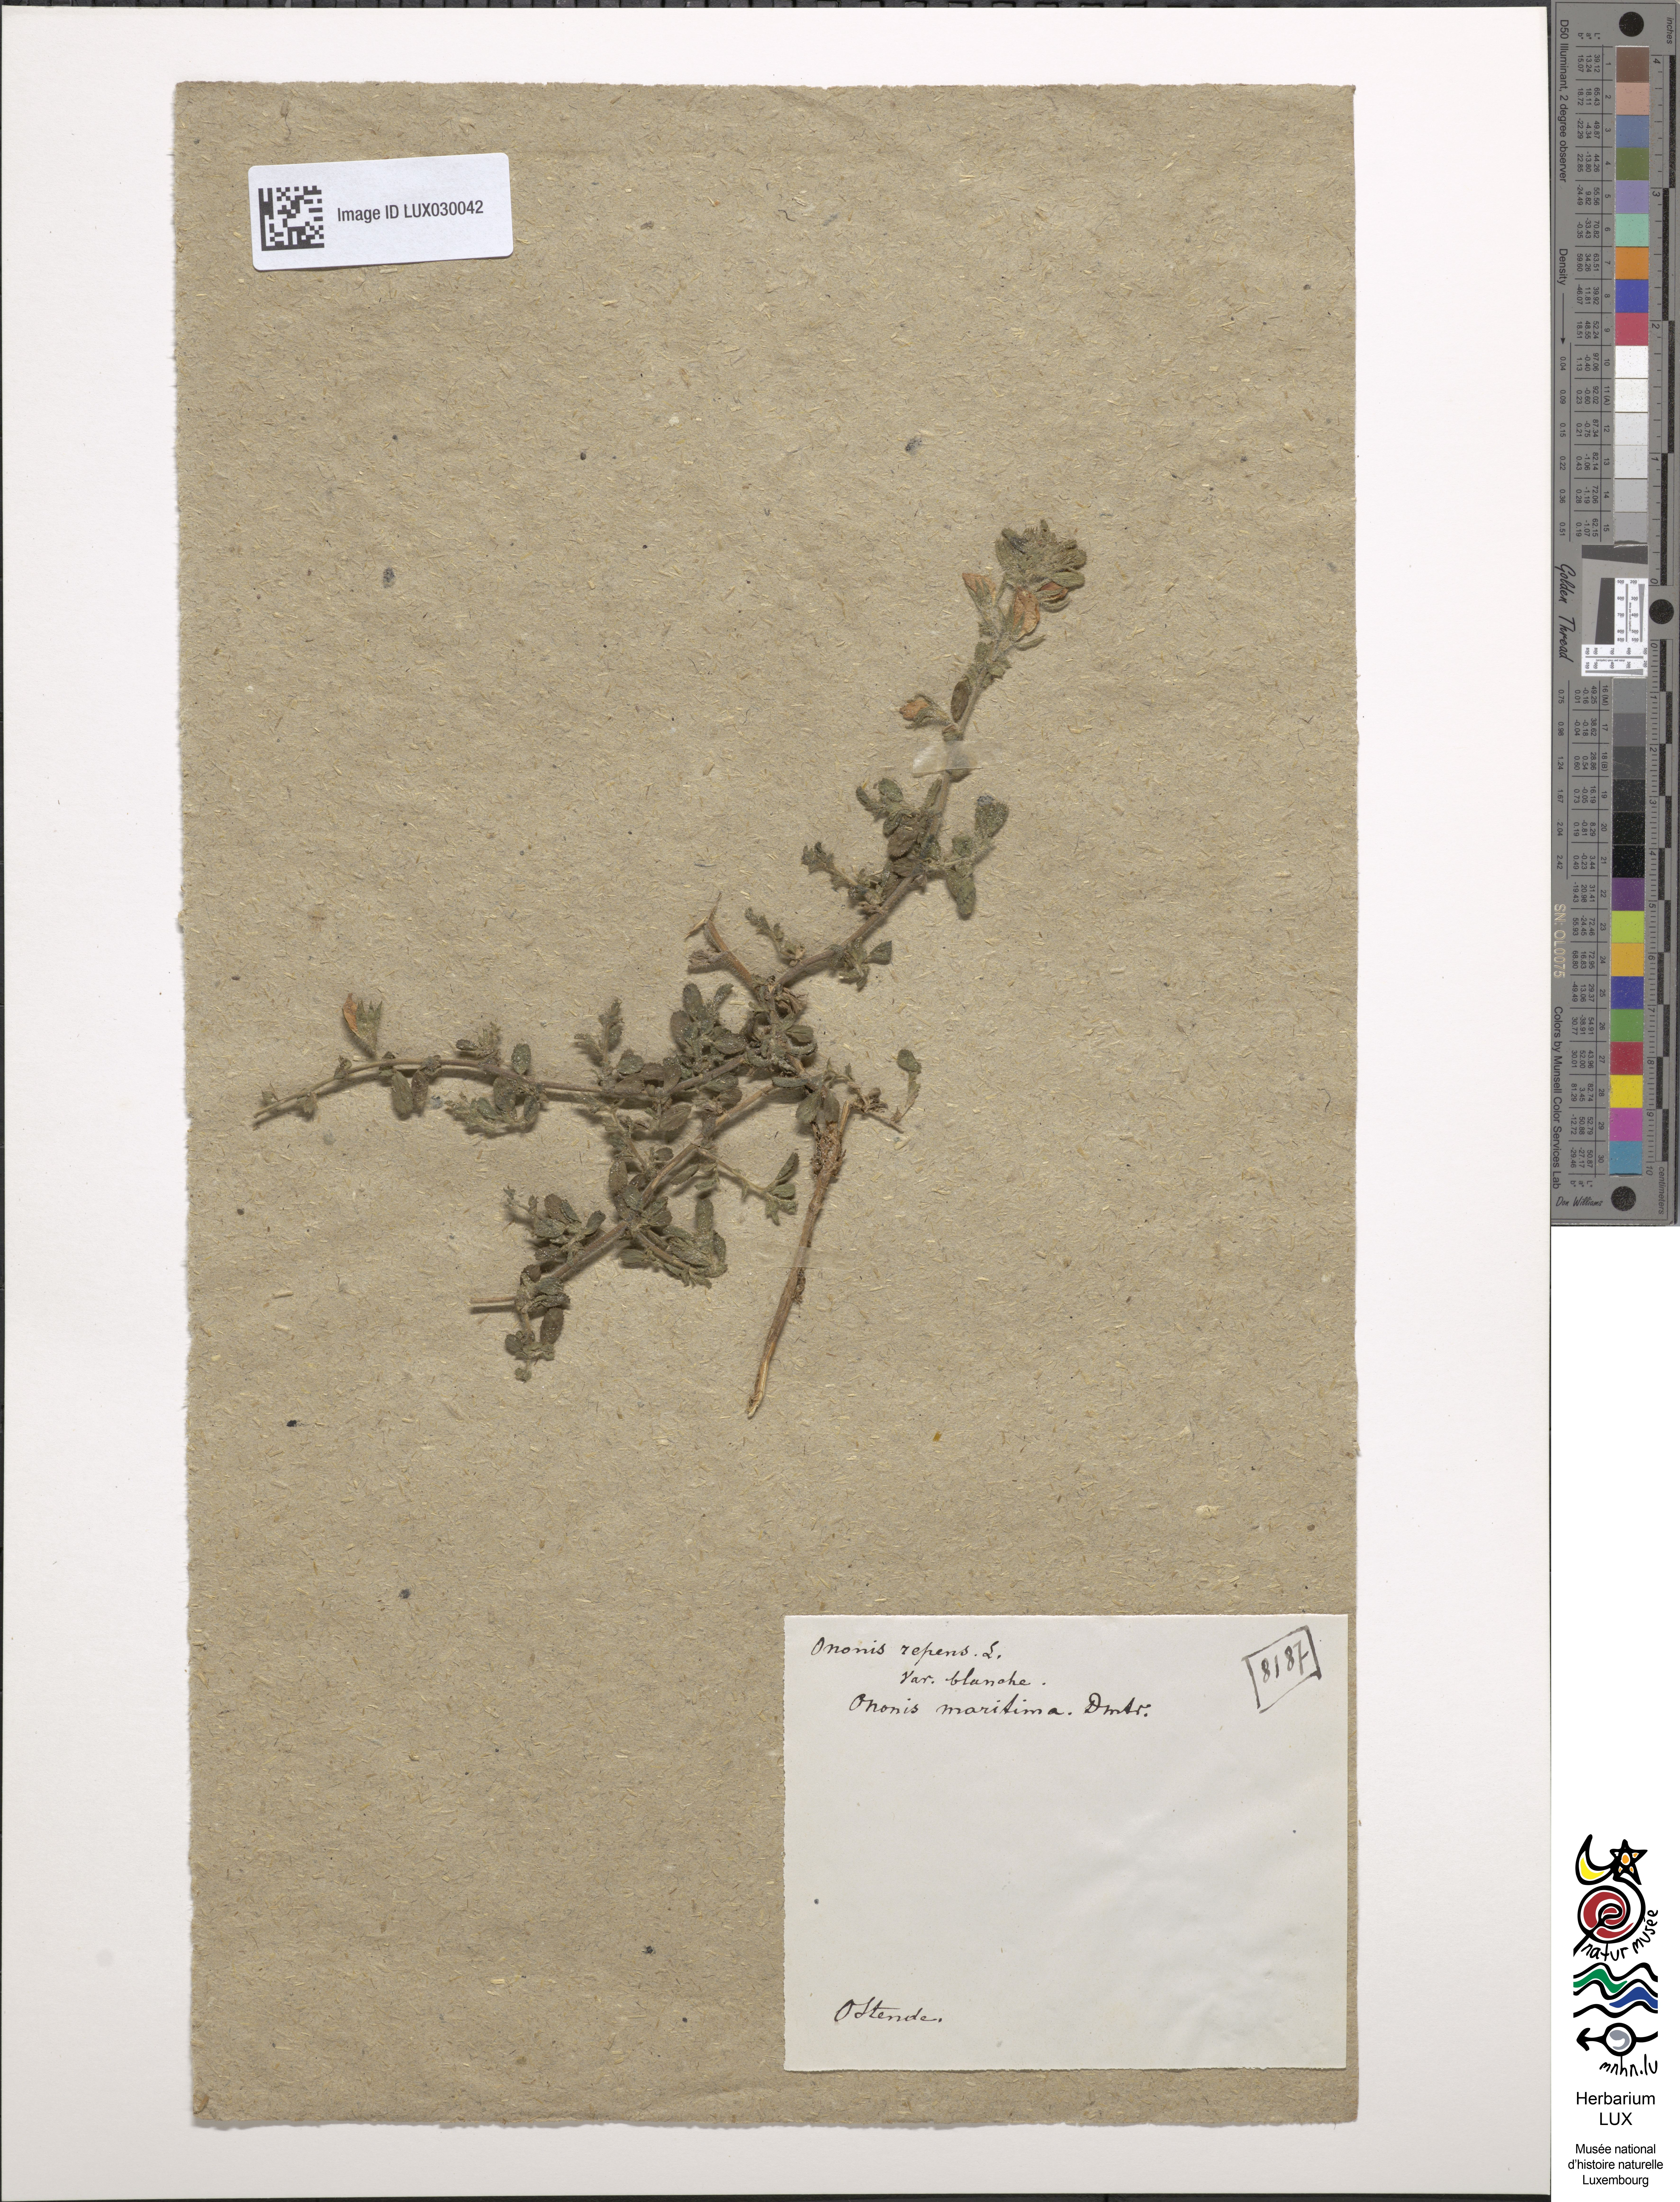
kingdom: Plantae
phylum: Tracheophyta
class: Magnoliopsida
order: Fabales
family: Fabaceae
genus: Ononis
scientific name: Ononis spinosa
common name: Spiny restharrow
